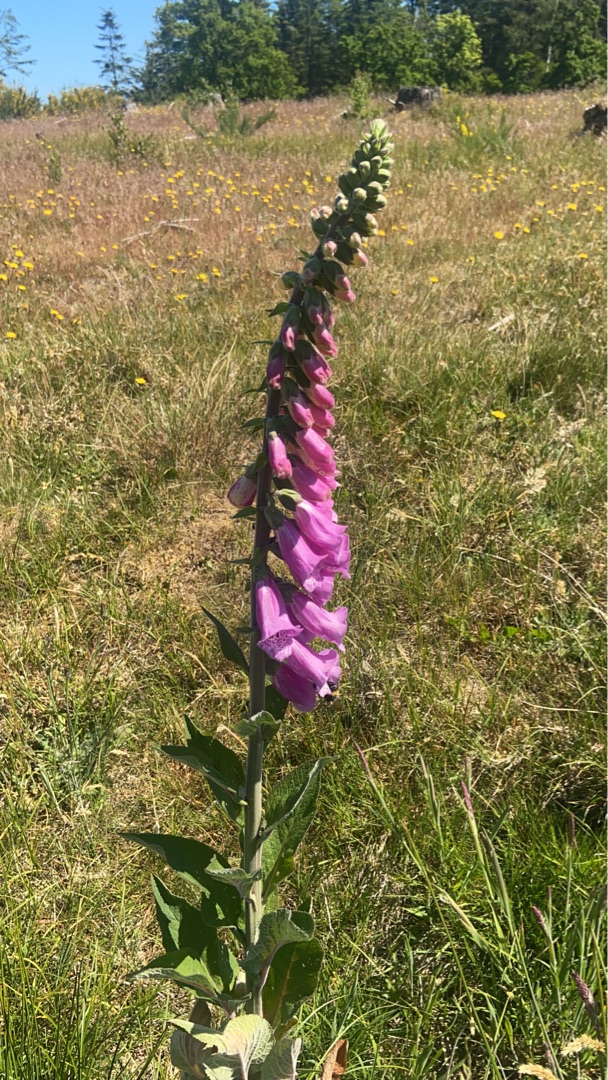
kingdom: Plantae
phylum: Tracheophyta
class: Magnoliopsida
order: Lamiales
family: Plantaginaceae
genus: Digitalis
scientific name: Digitalis purpurea
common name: Almindelig fingerbøl
